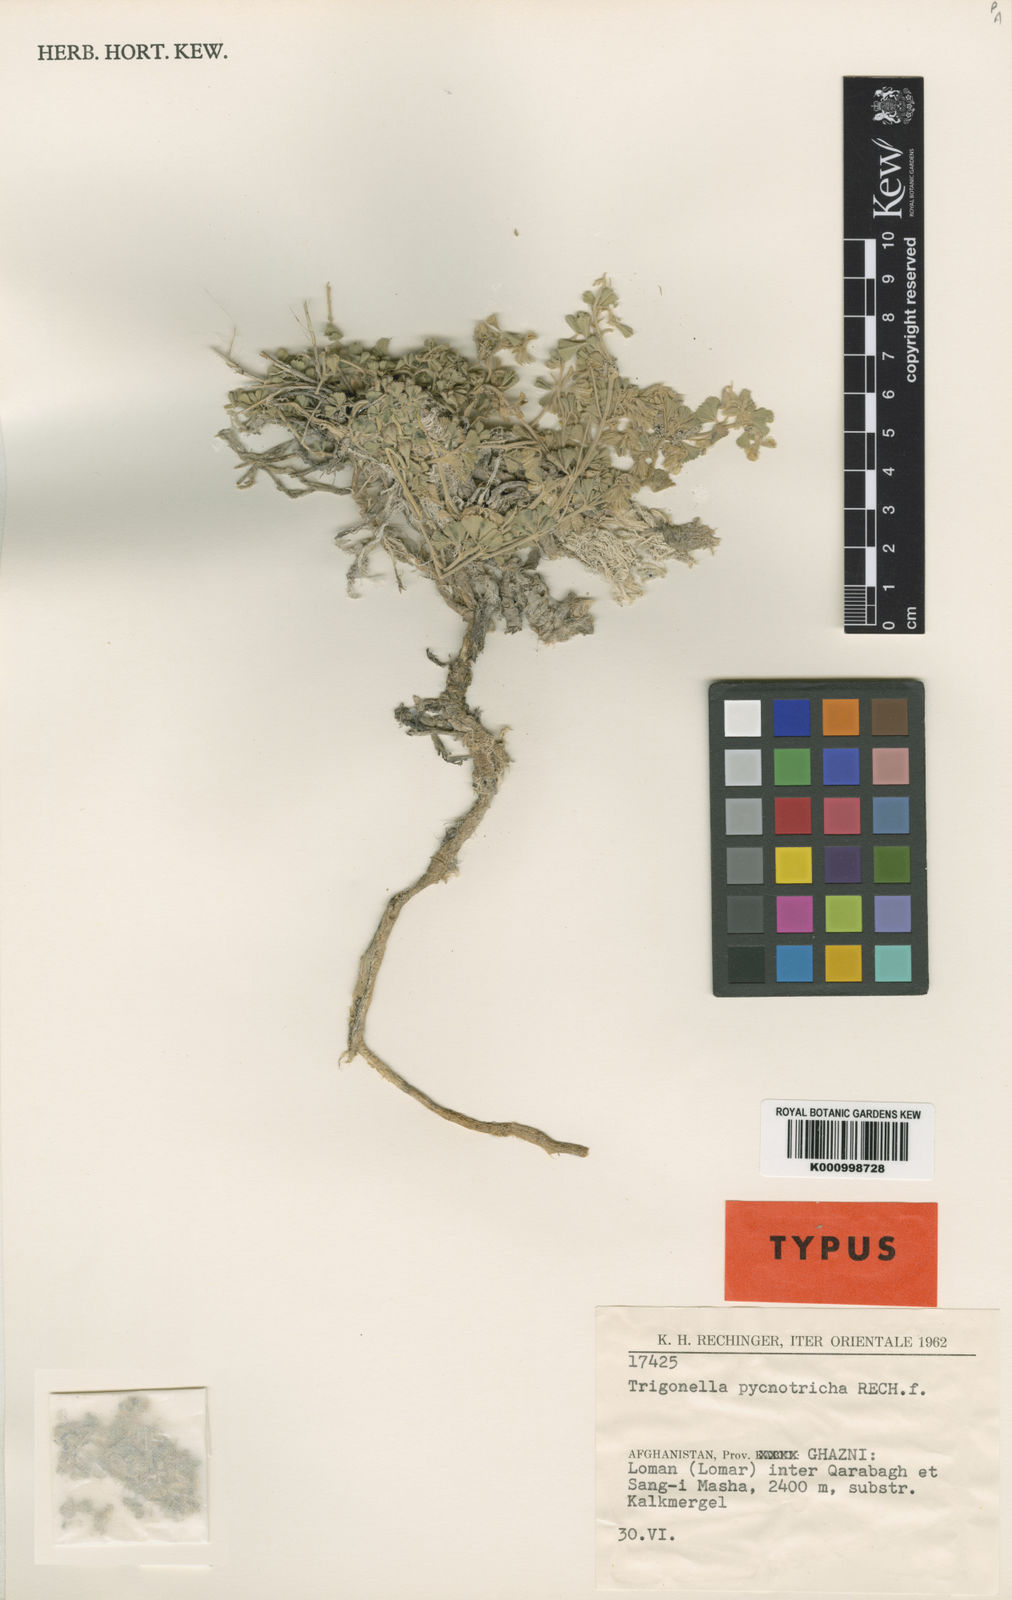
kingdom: Plantae
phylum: Tracheophyta
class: Magnoliopsida
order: Fabales
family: Fabaceae
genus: Trigonella
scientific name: Trigonella pycnotricha
